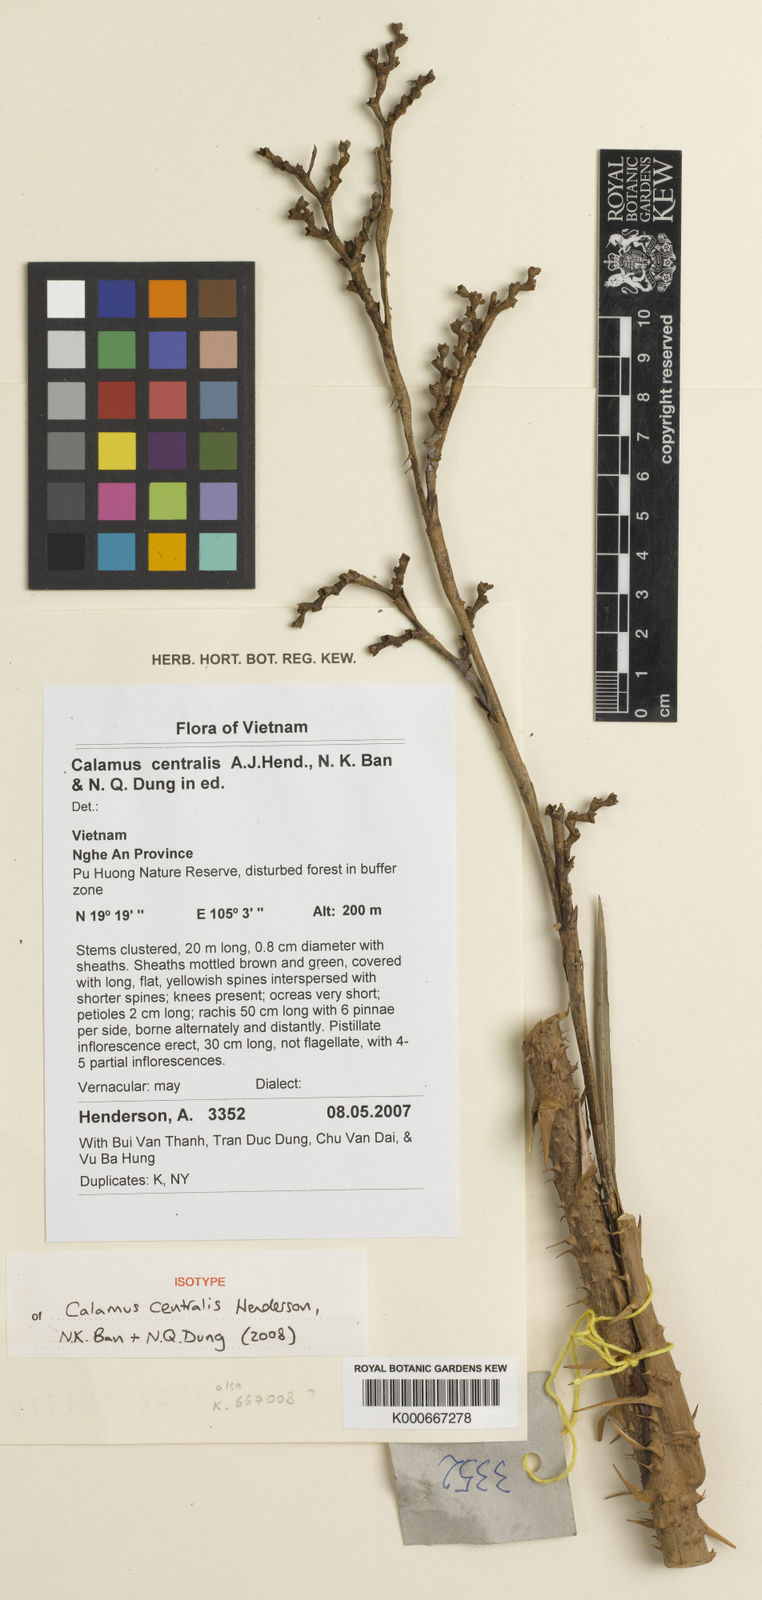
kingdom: Plantae
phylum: Tracheophyta
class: Liliopsida
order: Arecales
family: Arecaceae
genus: Calamus
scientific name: Calamus centralis
